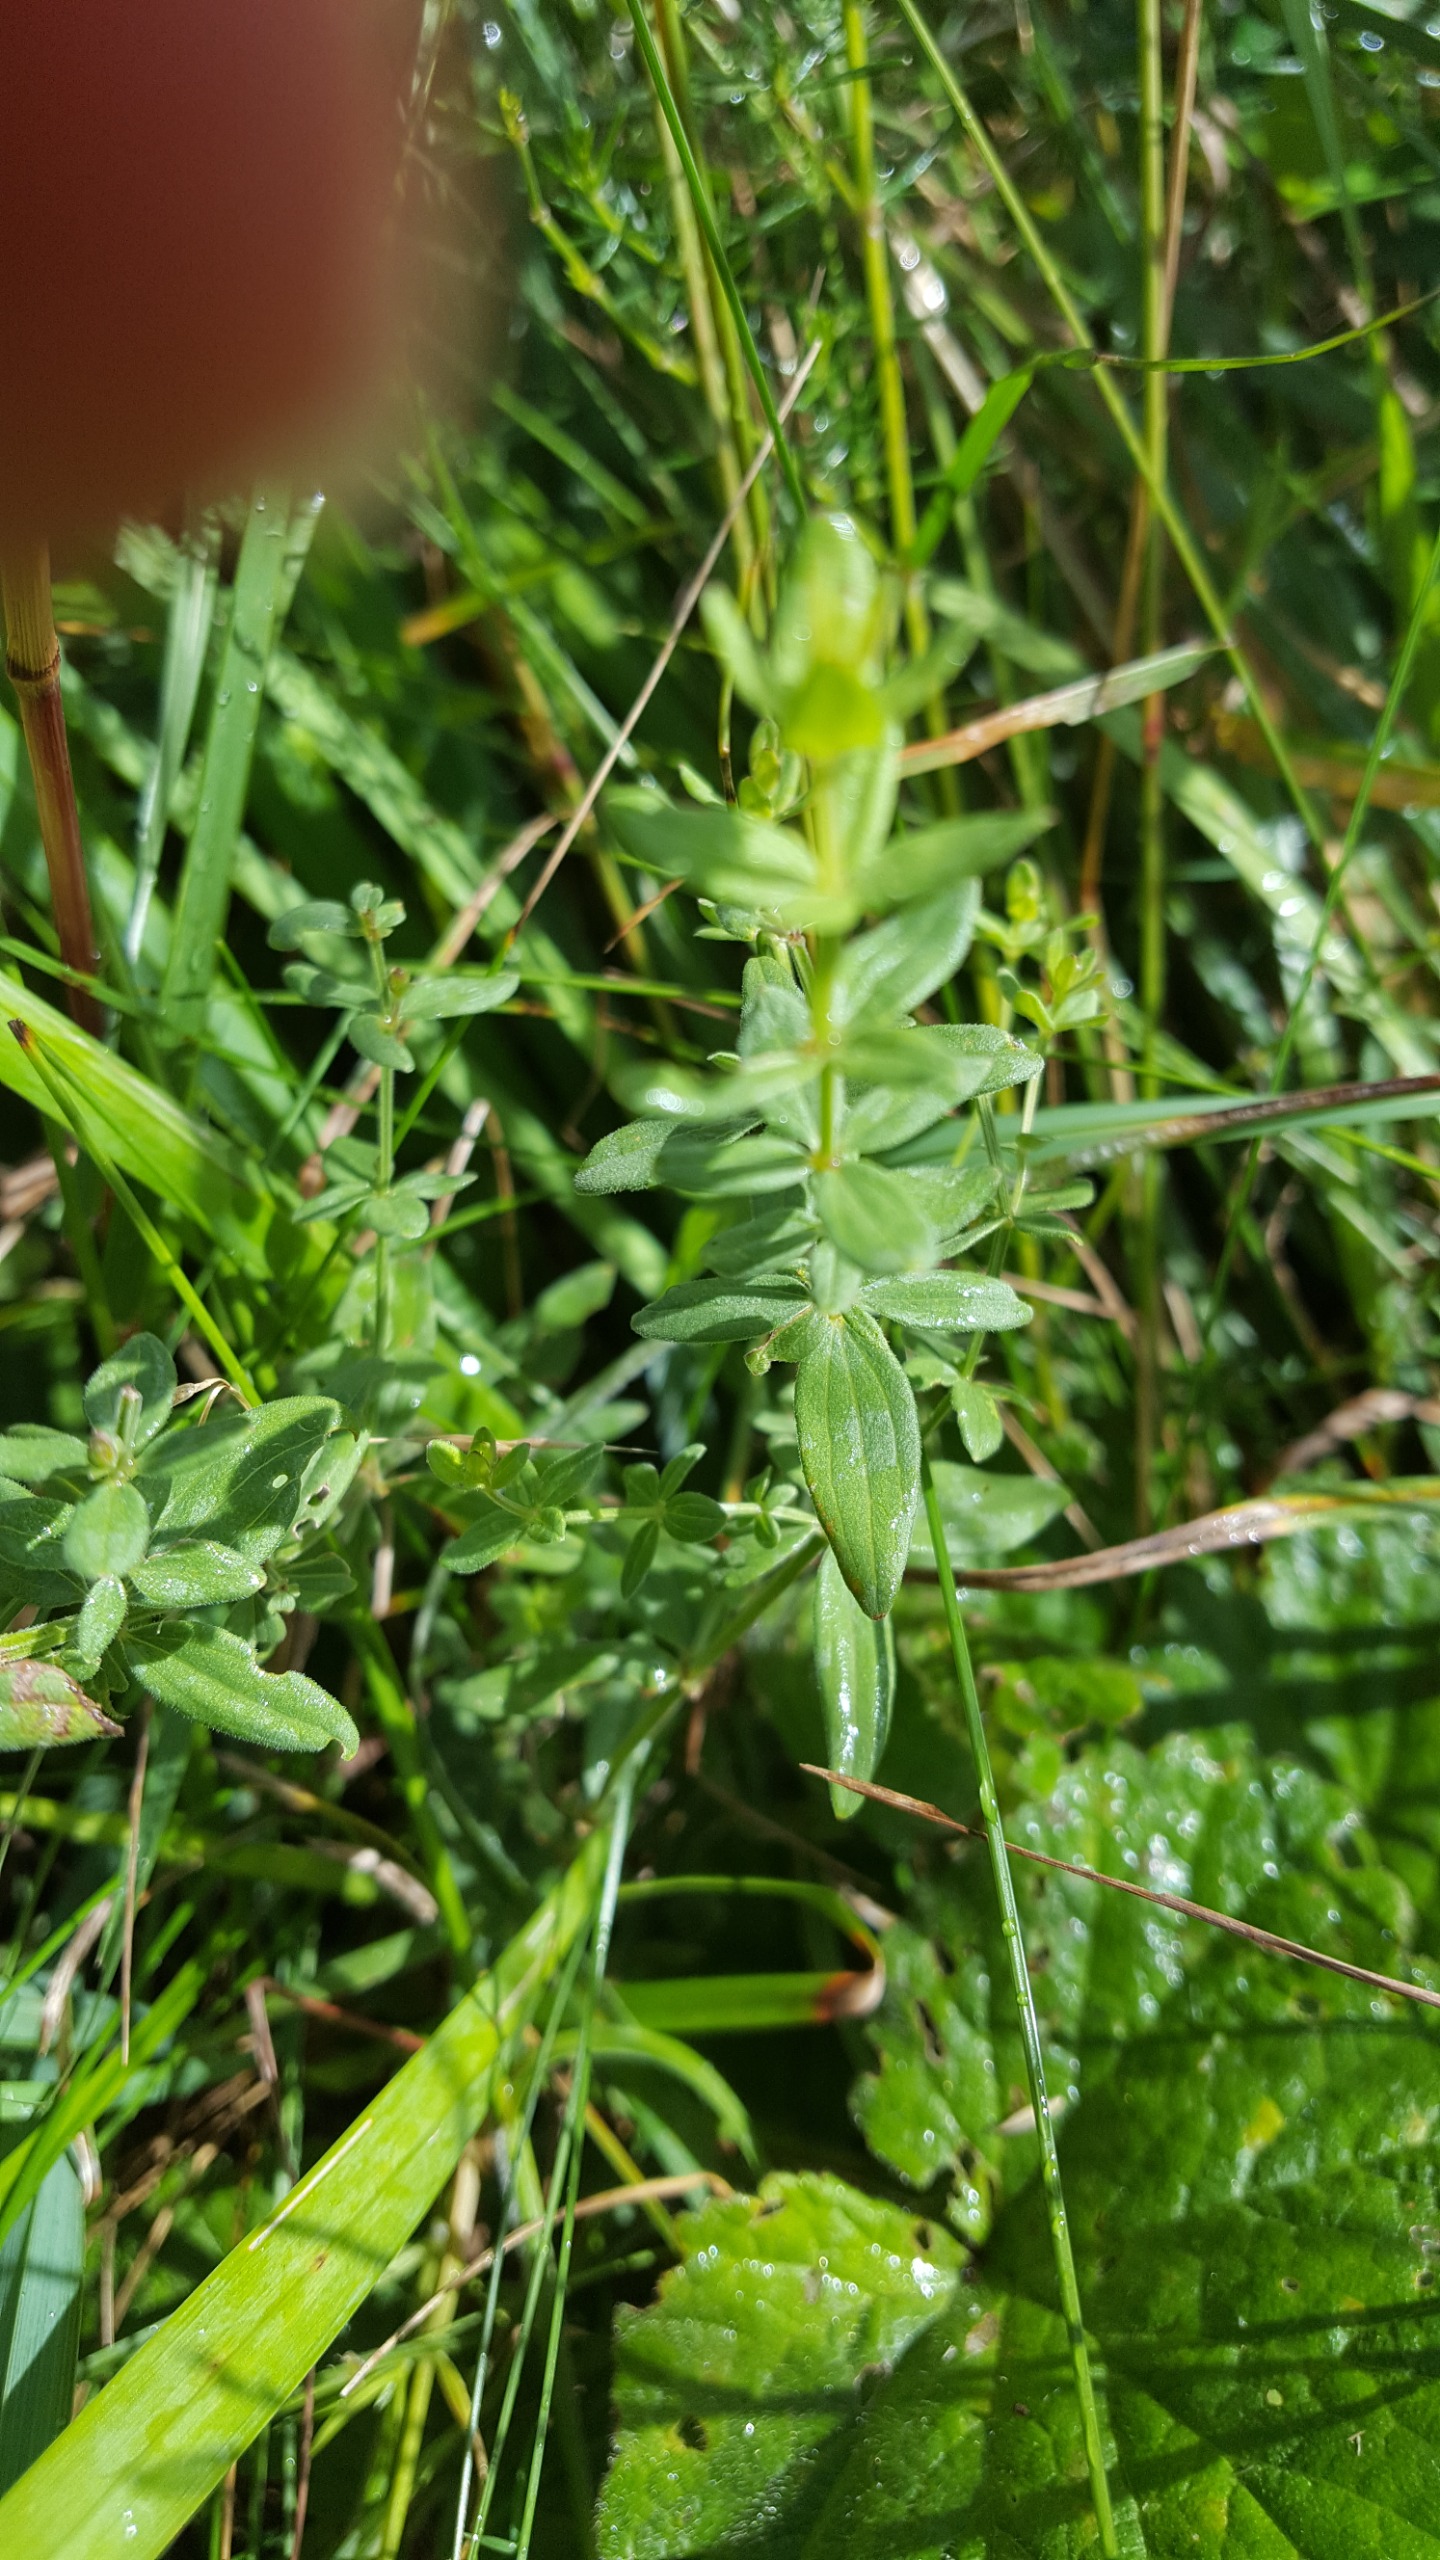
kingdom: Plantae
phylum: Tracheophyta
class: Magnoliopsida
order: Gentianales
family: Rubiaceae
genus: Galium
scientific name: Galium boreale
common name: Trenervet snerre
